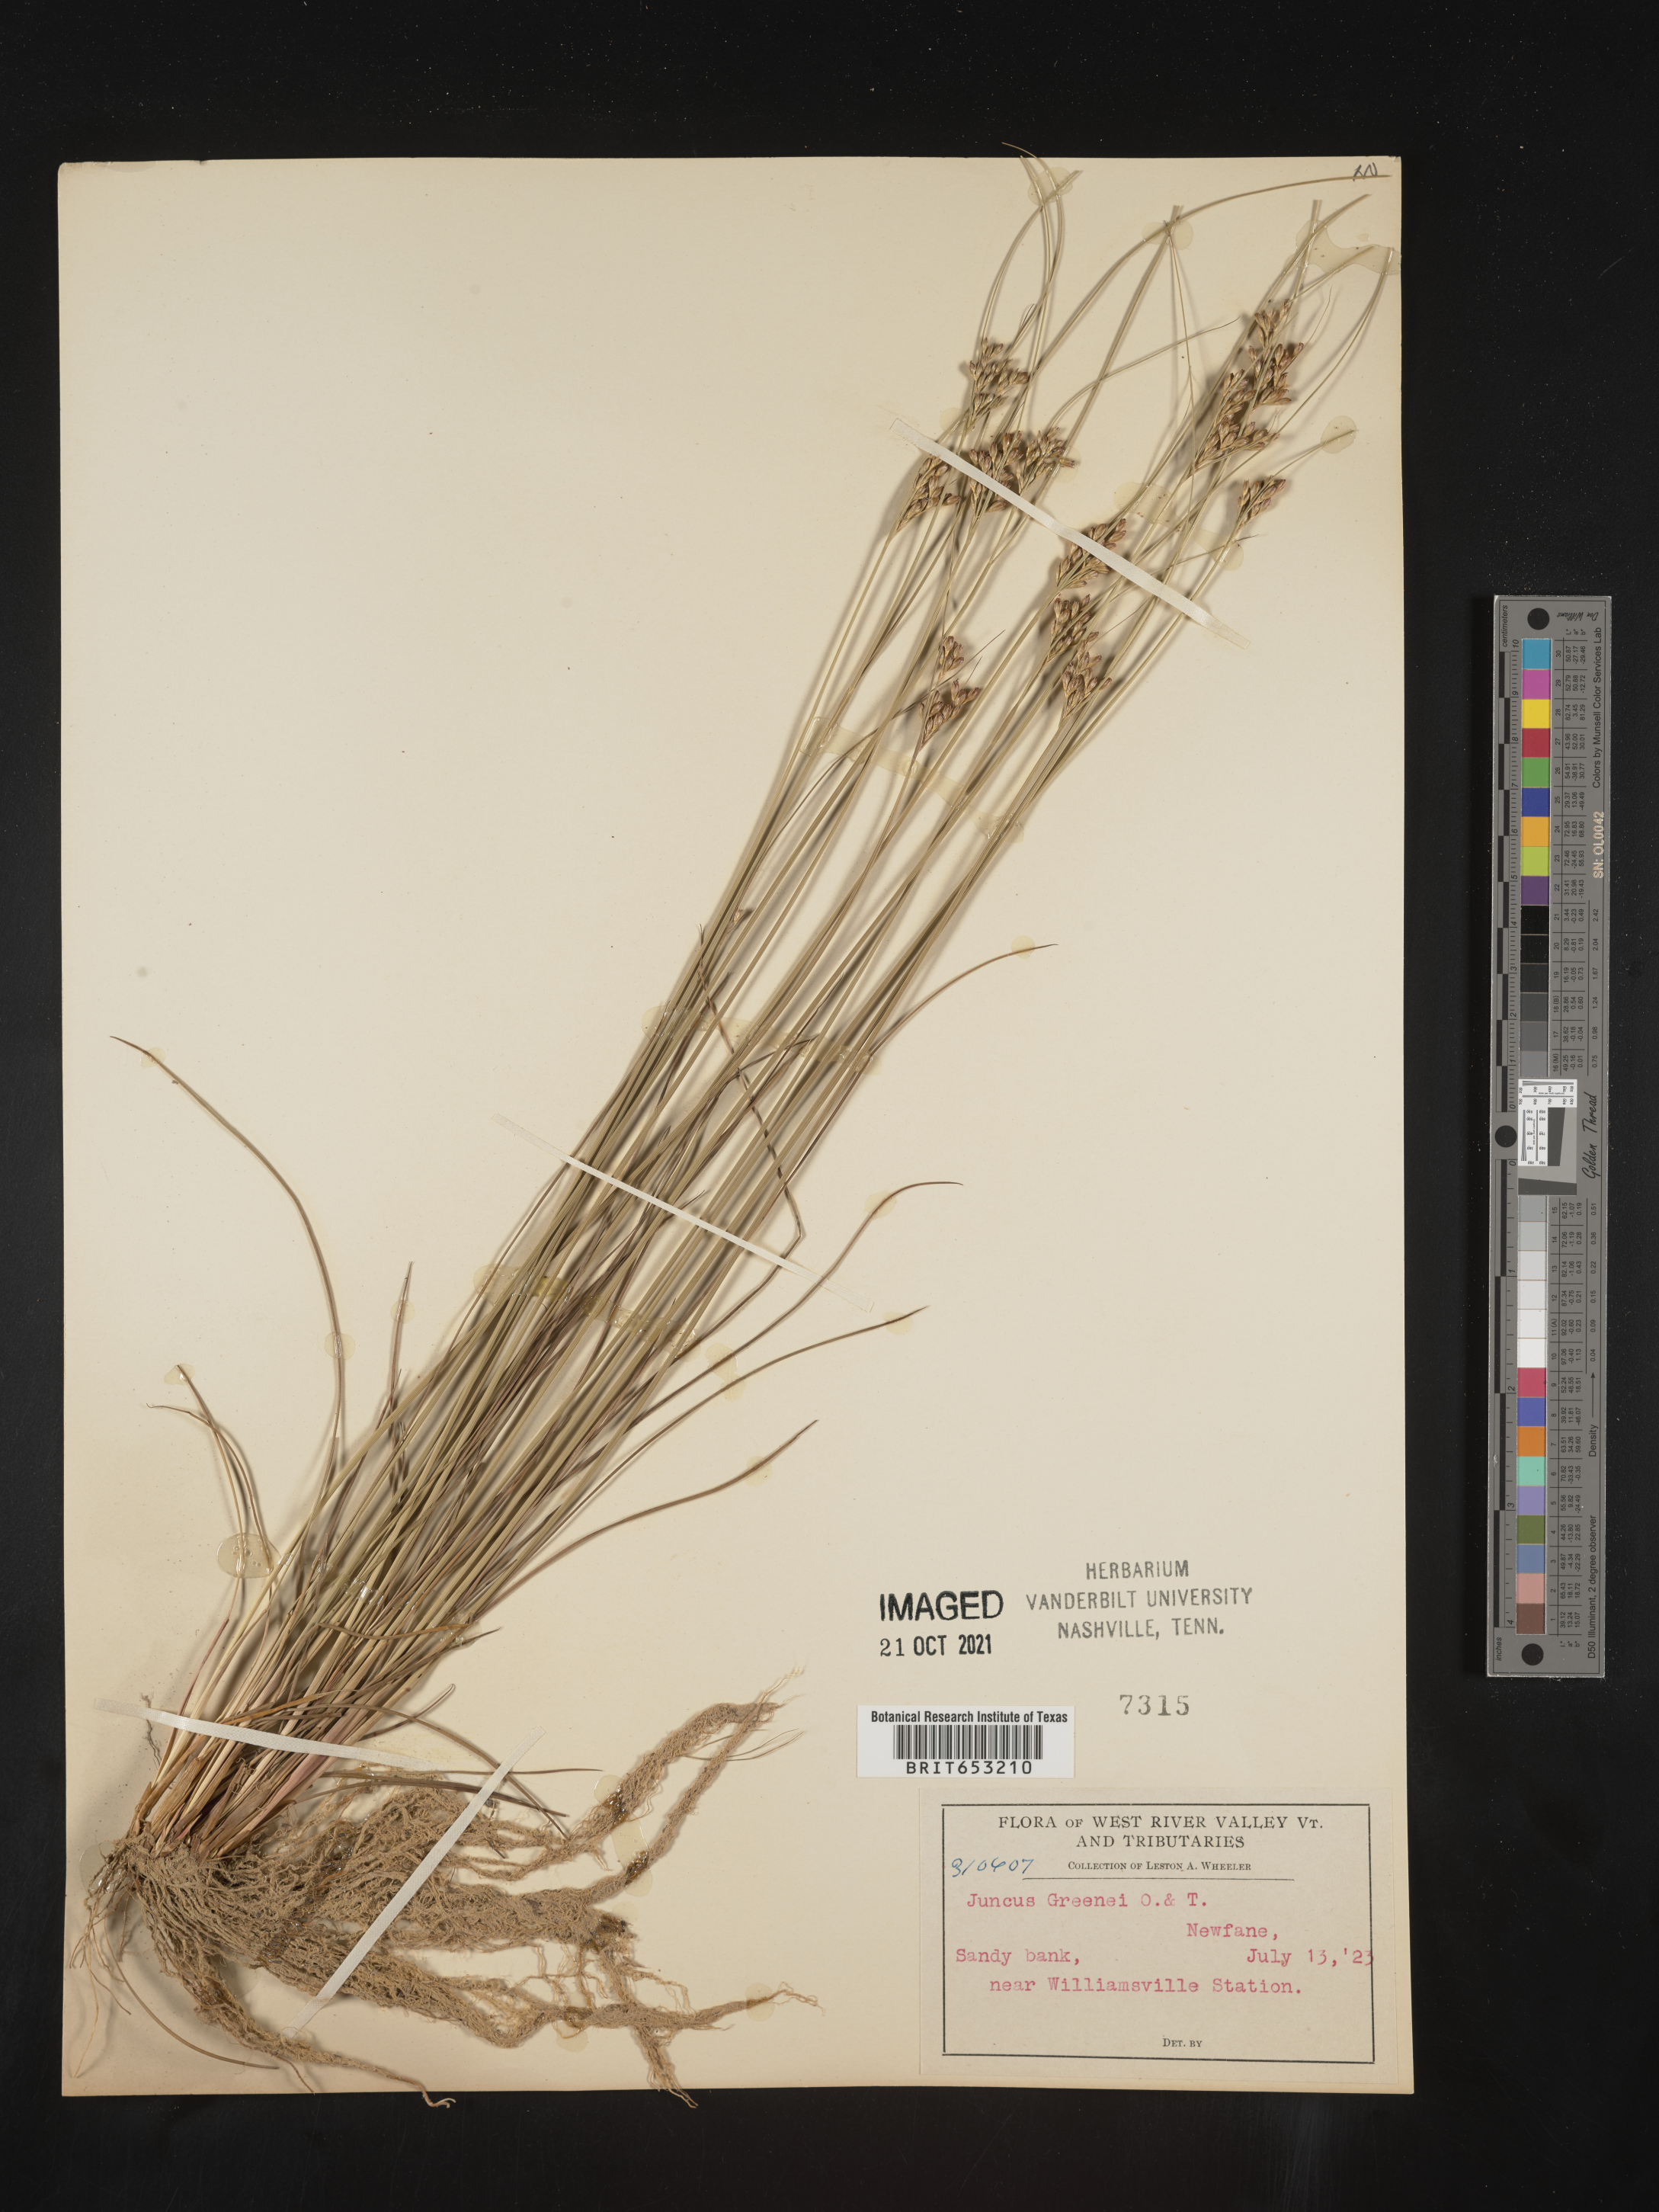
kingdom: Plantae
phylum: Tracheophyta
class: Liliopsida
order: Poales
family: Juncaceae
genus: Juncus
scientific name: Juncus greenei
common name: Greene's rush
